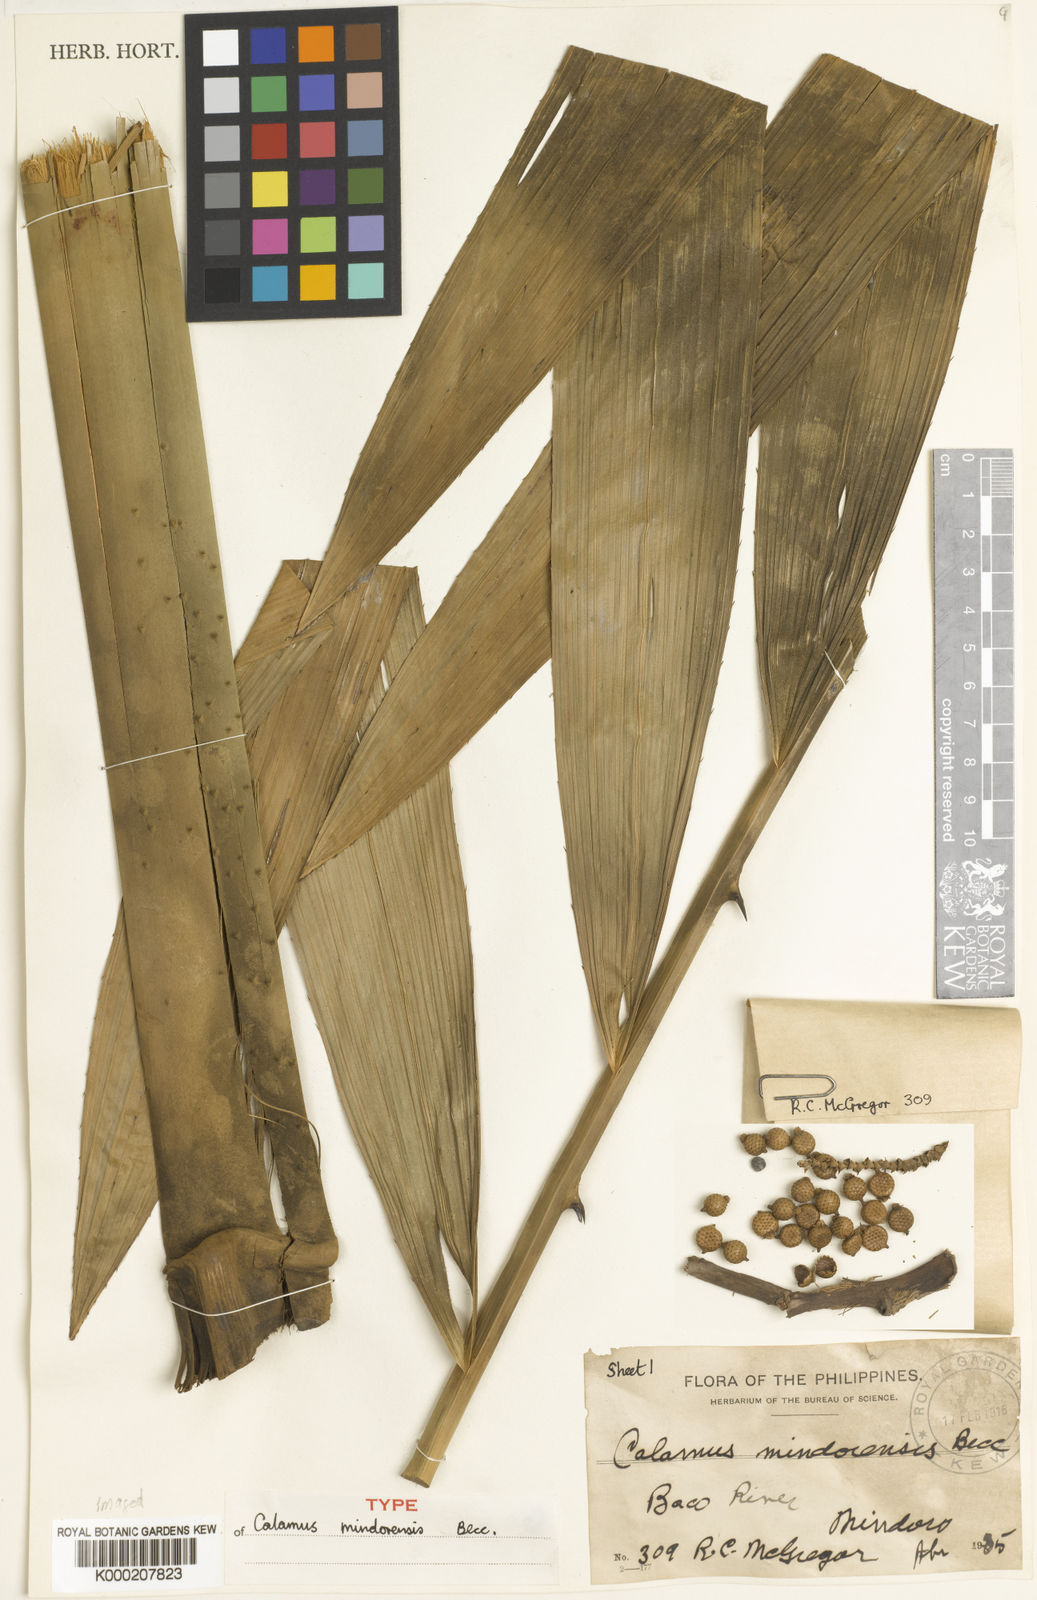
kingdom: Plantae
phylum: Tracheophyta
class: Liliopsida
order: Arecales
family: Arecaceae
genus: Calamus
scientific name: Calamus moseleyanus
